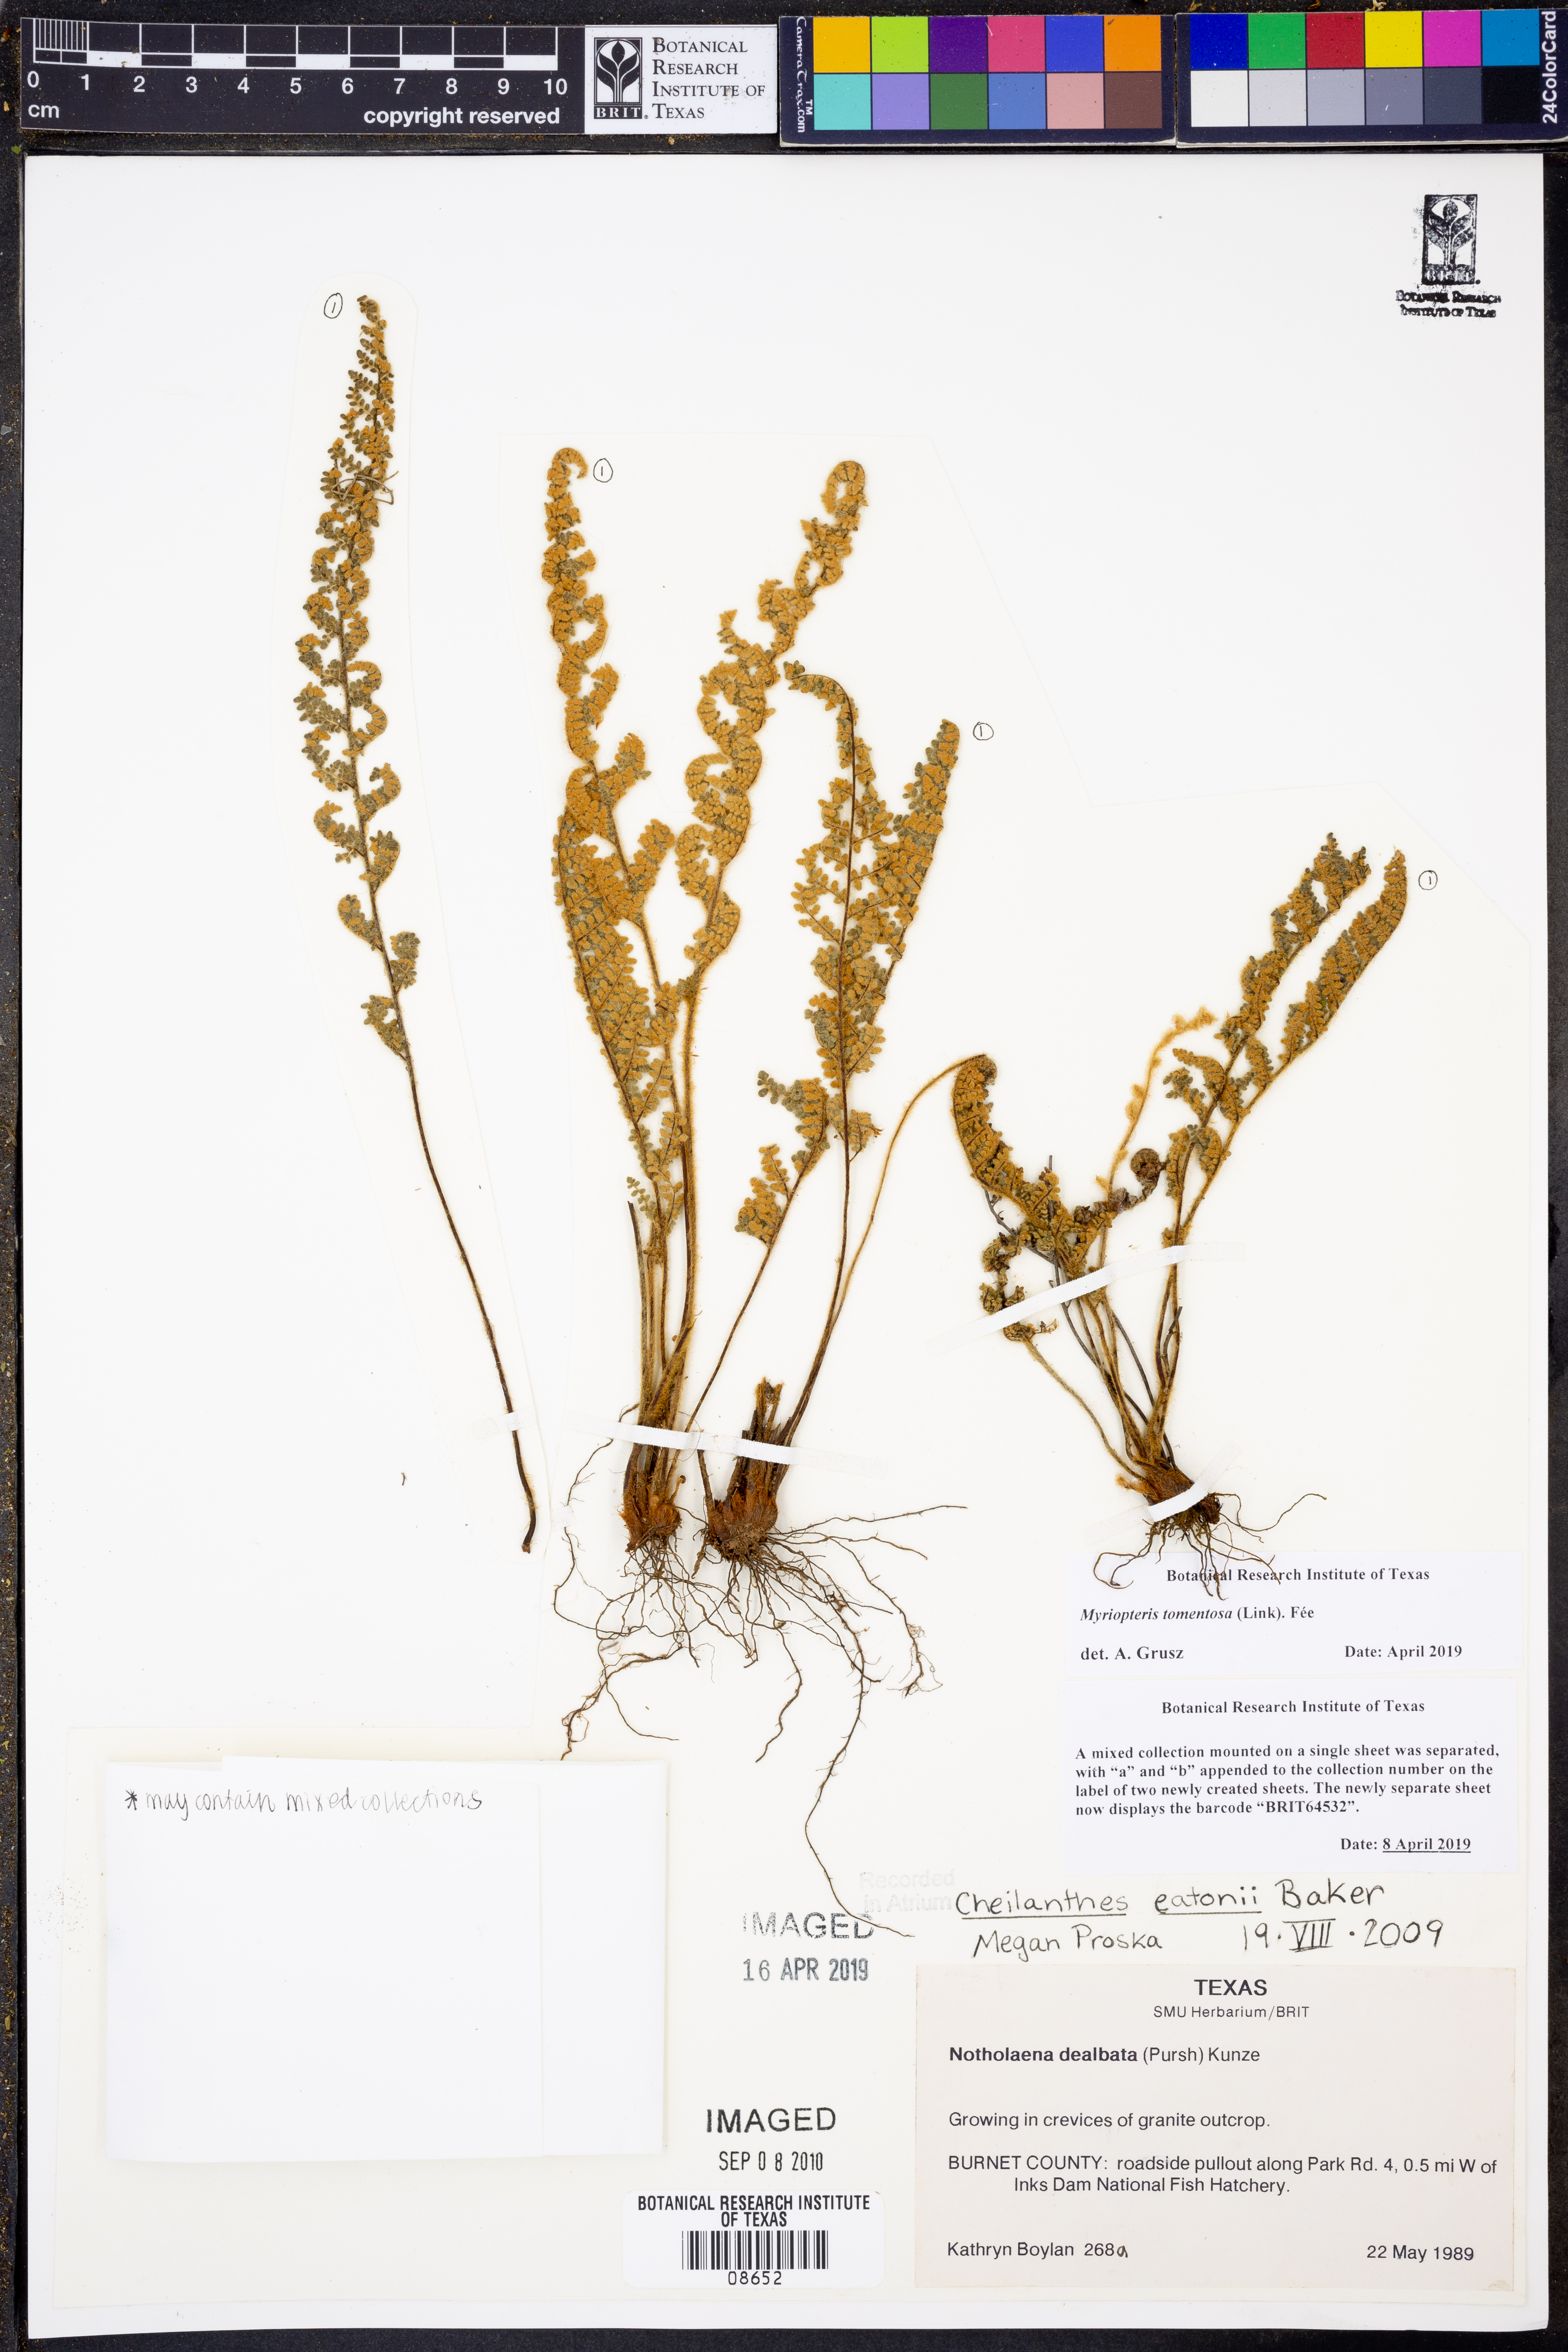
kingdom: Plantae
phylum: Tracheophyta
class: Polypodiopsida
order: Polypodiales
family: Pteridaceae
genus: Myriopteris
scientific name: Myriopteris tomentosa
